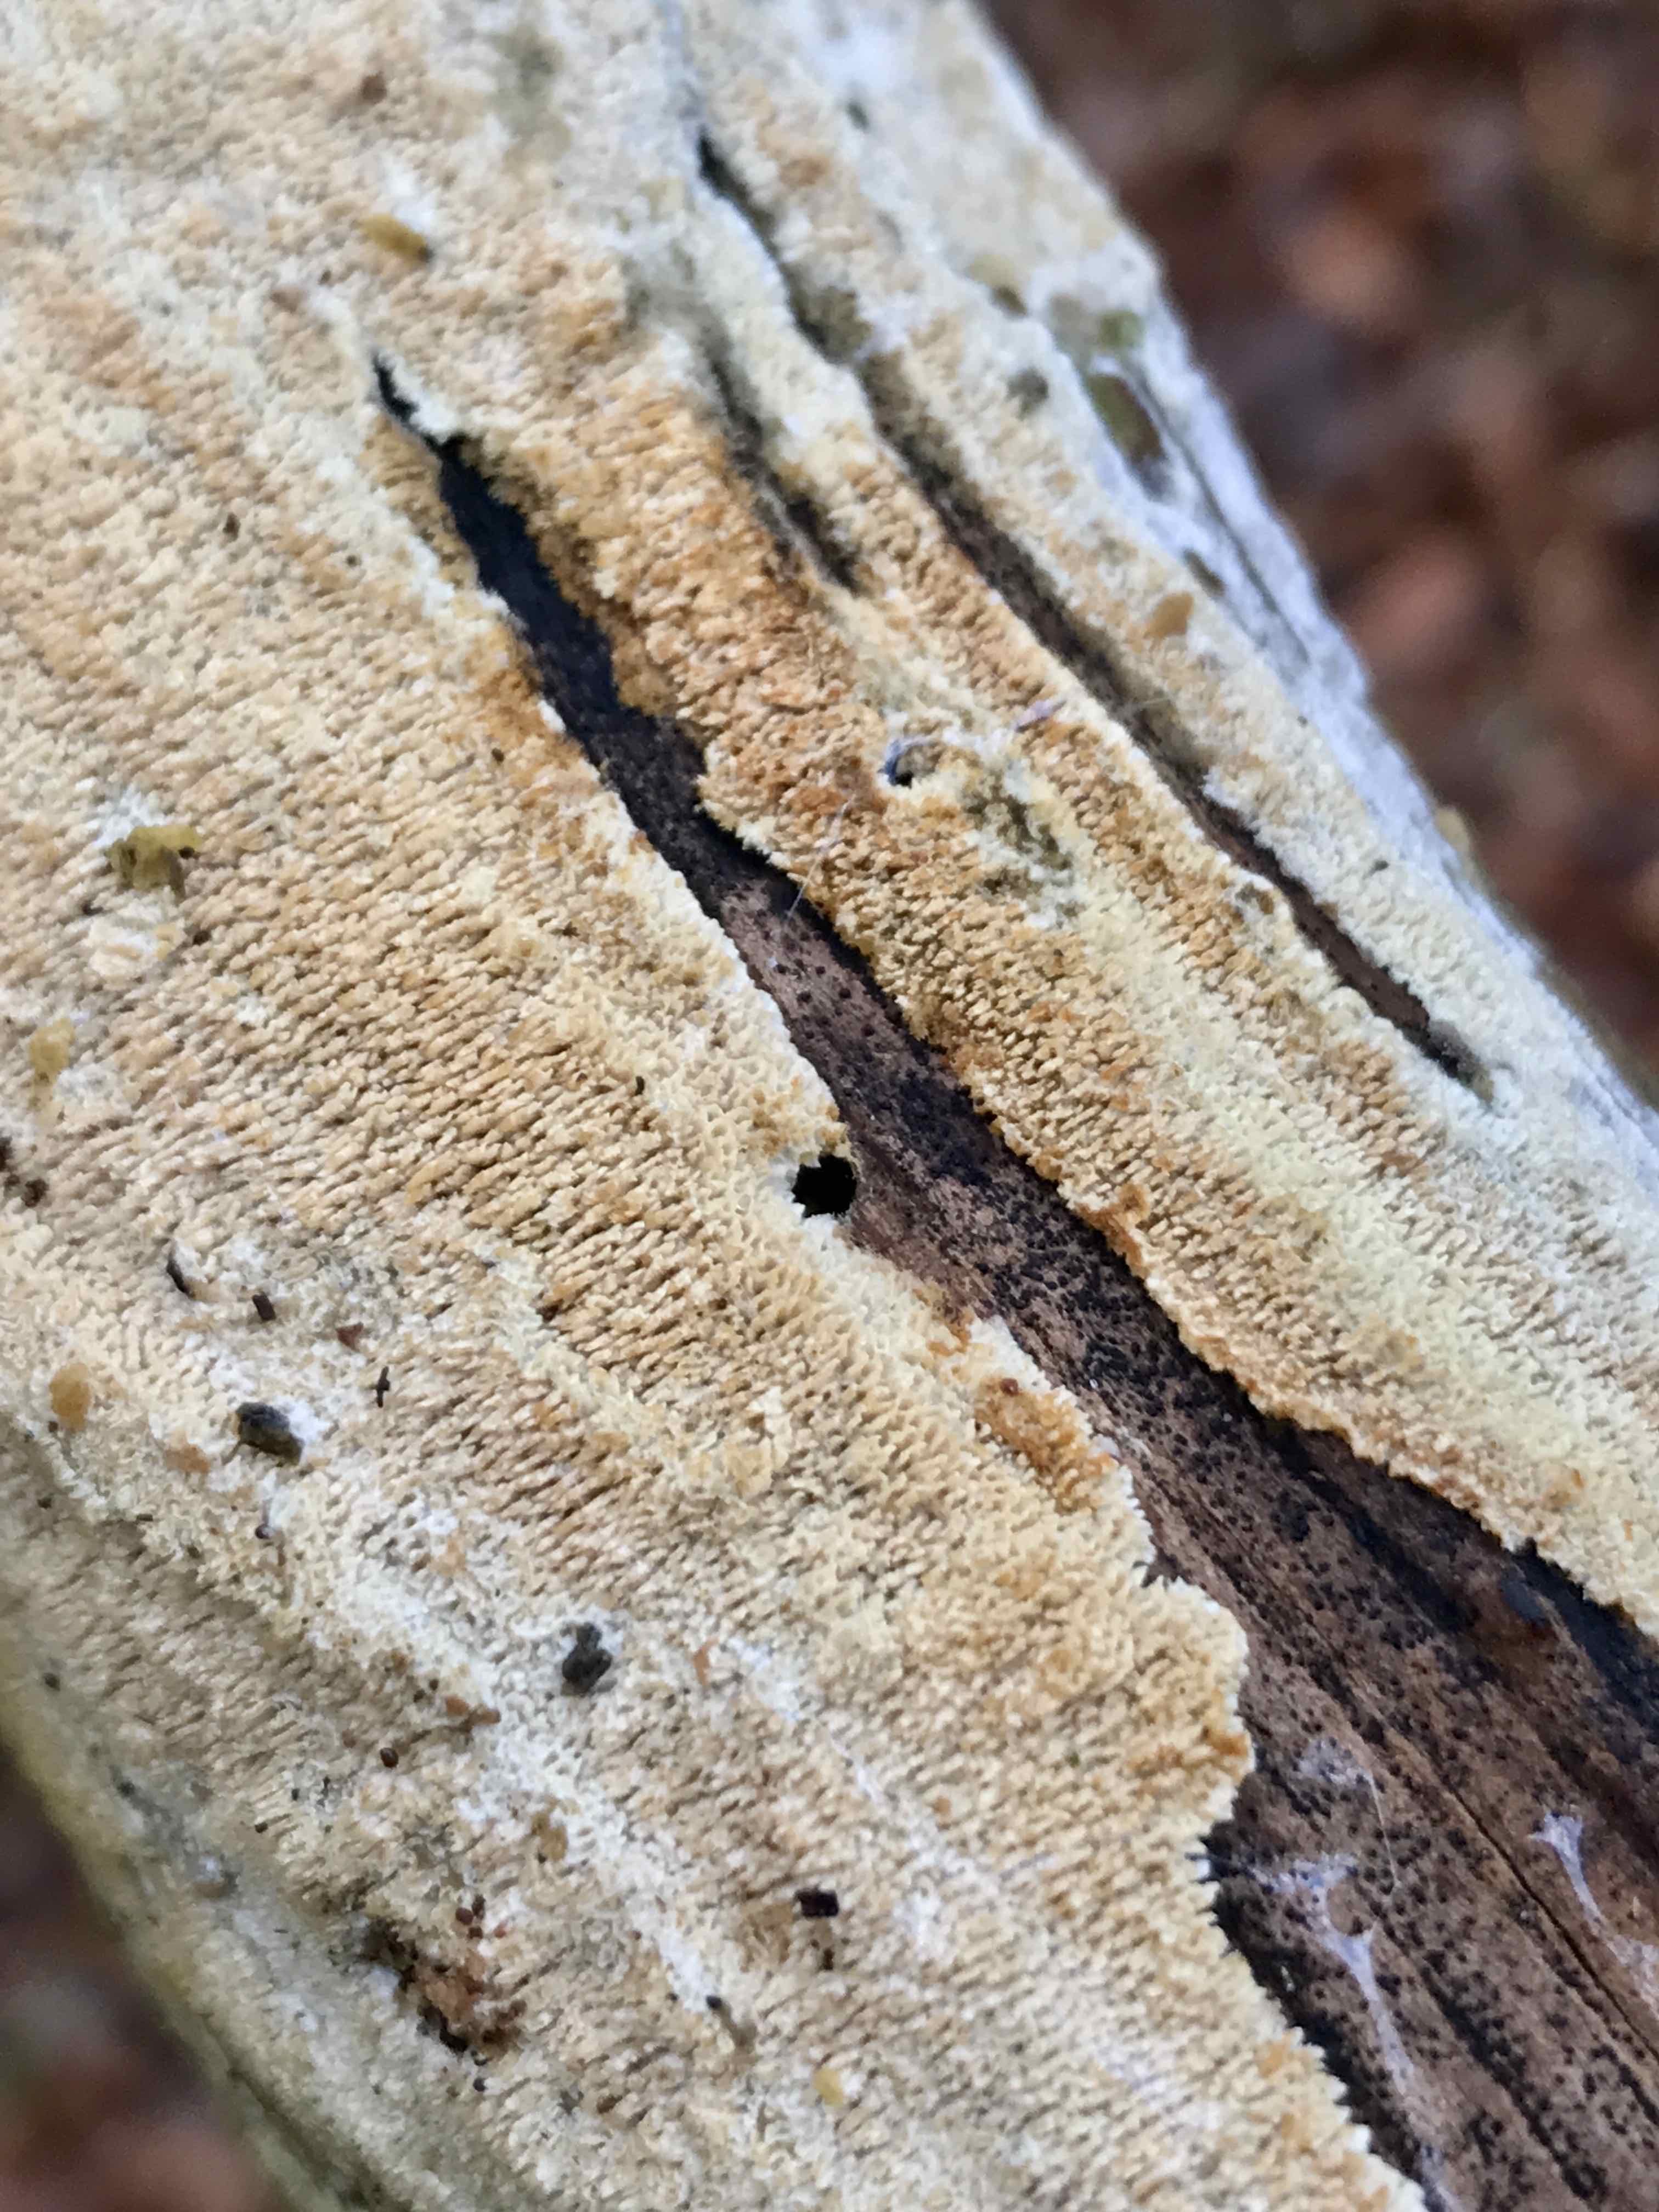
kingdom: Fungi
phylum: Basidiomycota
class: Agaricomycetes
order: Hymenochaetales
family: Schizoporaceae
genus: Schizopora
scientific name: Schizopora paradoxa
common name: hvid tandsvamp
